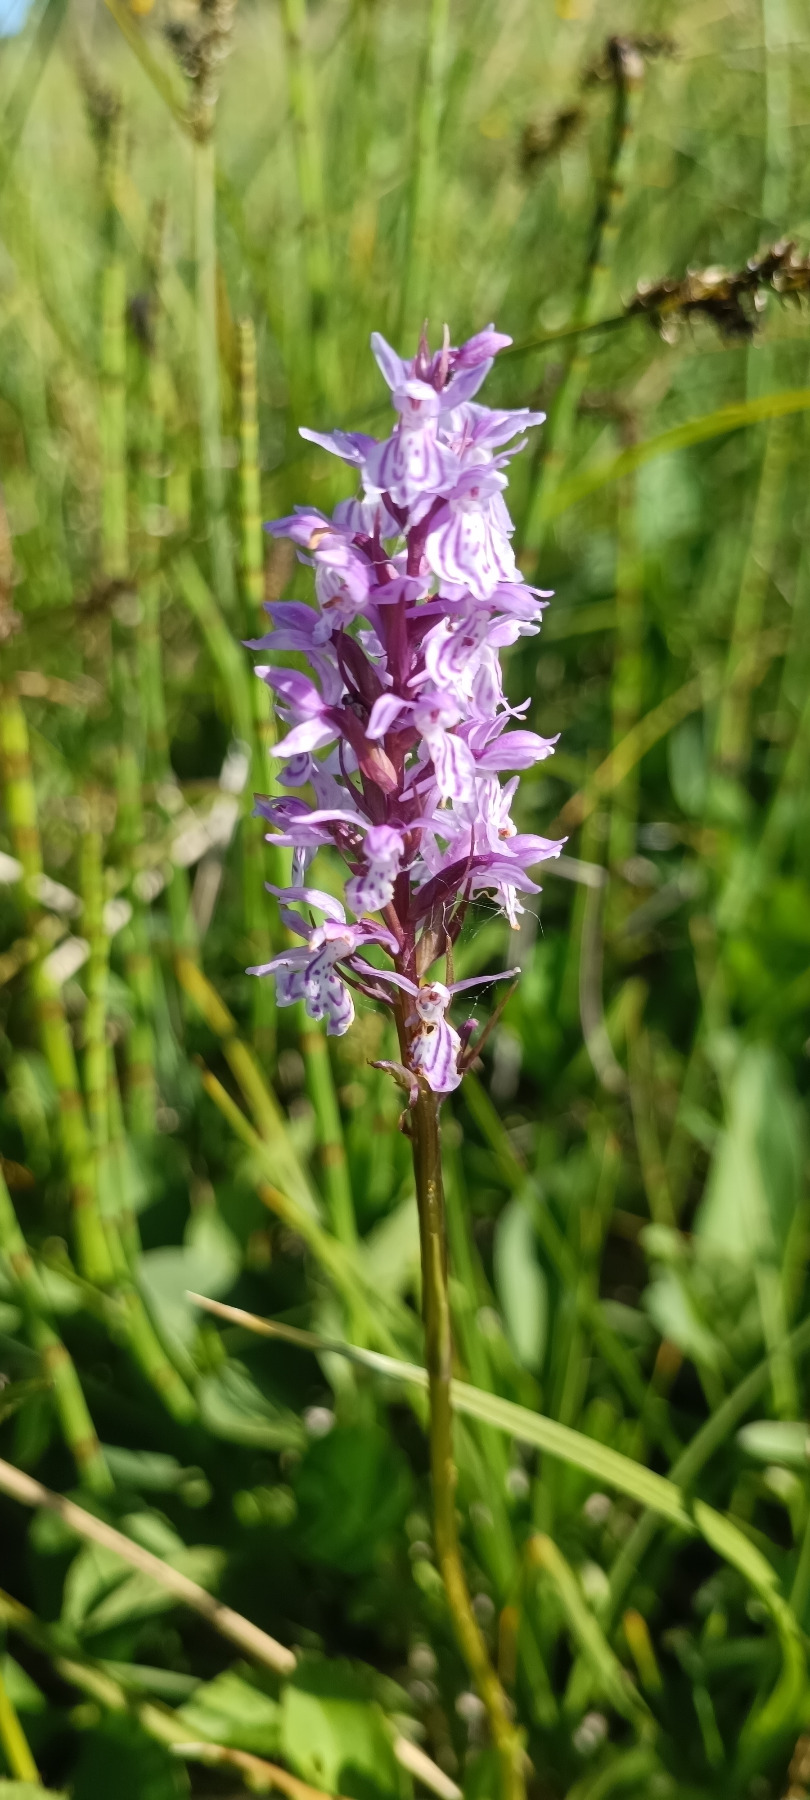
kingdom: Plantae
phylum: Tracheophyta
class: Liliopsida
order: Asparagales
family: Orchidaceae
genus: Dactylorhiza
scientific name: Dactylorhiza maculata
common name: Plettet gøgeurt
